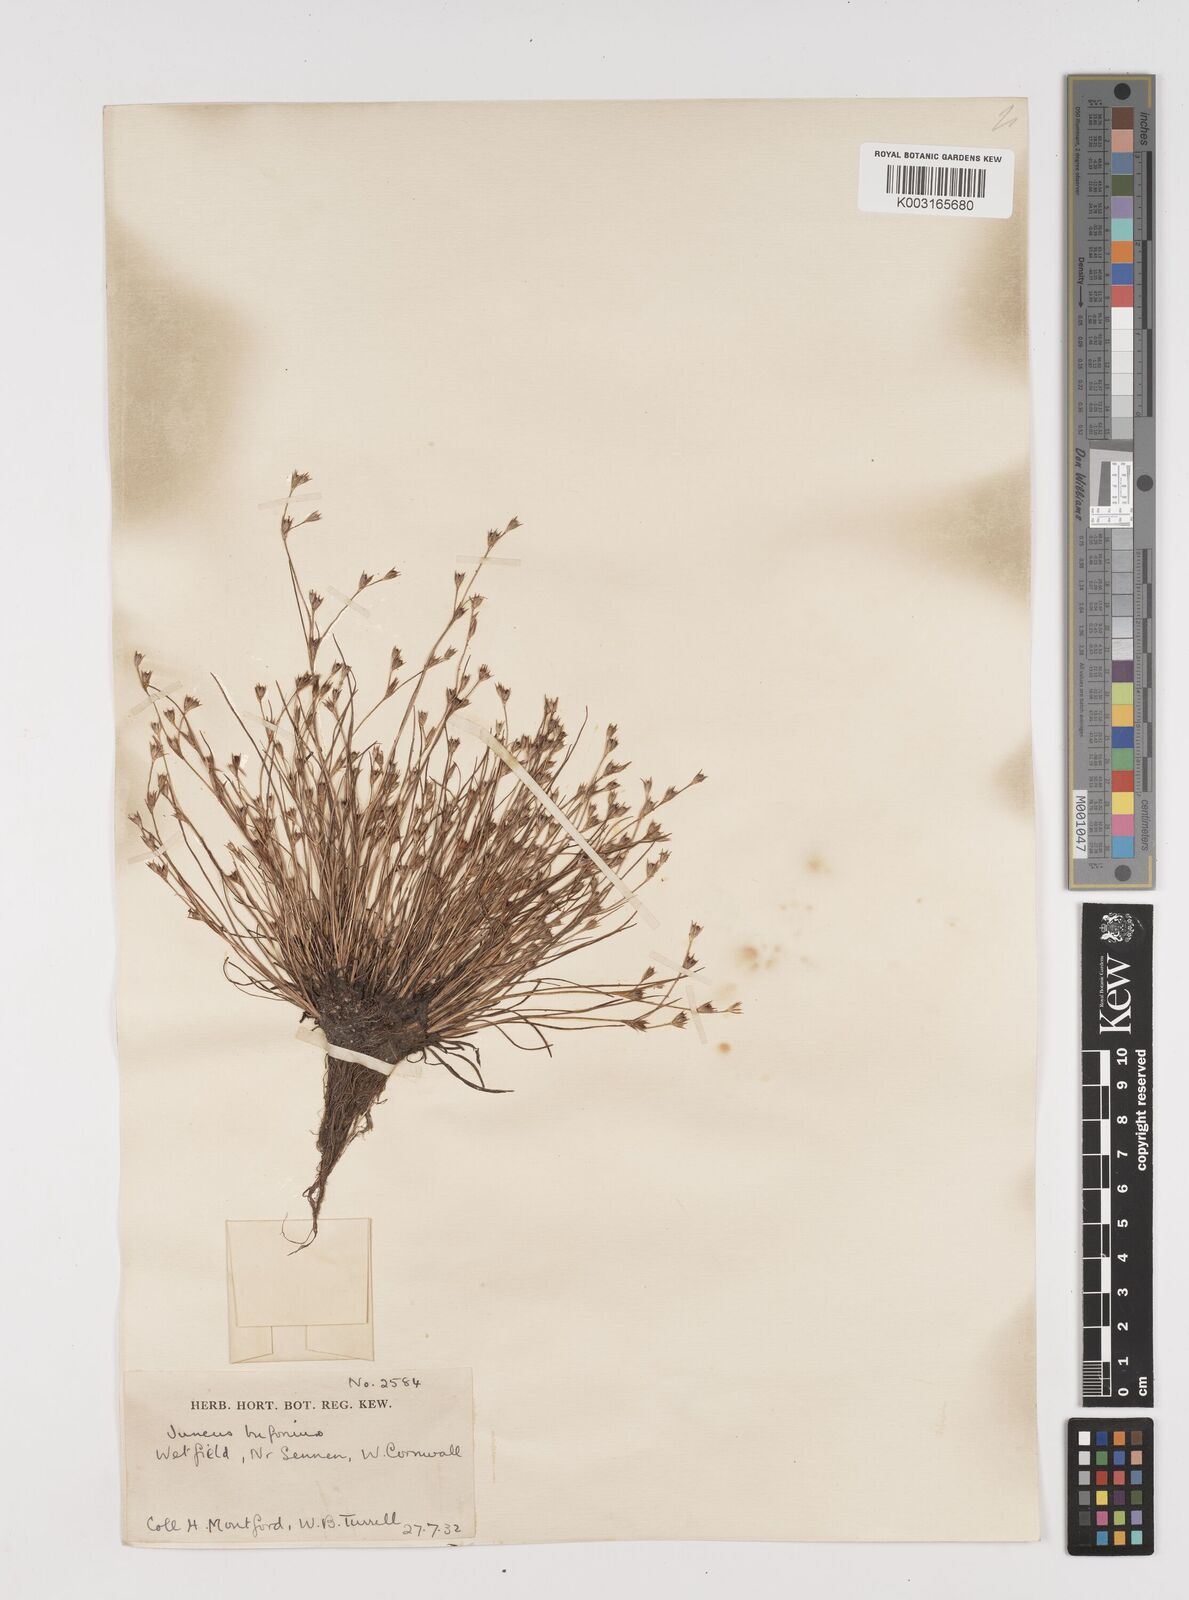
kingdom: Plantae
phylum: Tracheophyta
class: Liliopsida
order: Poales
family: Juncaceae
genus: Juncus
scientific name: Juncus bufonius
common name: Toad rush
